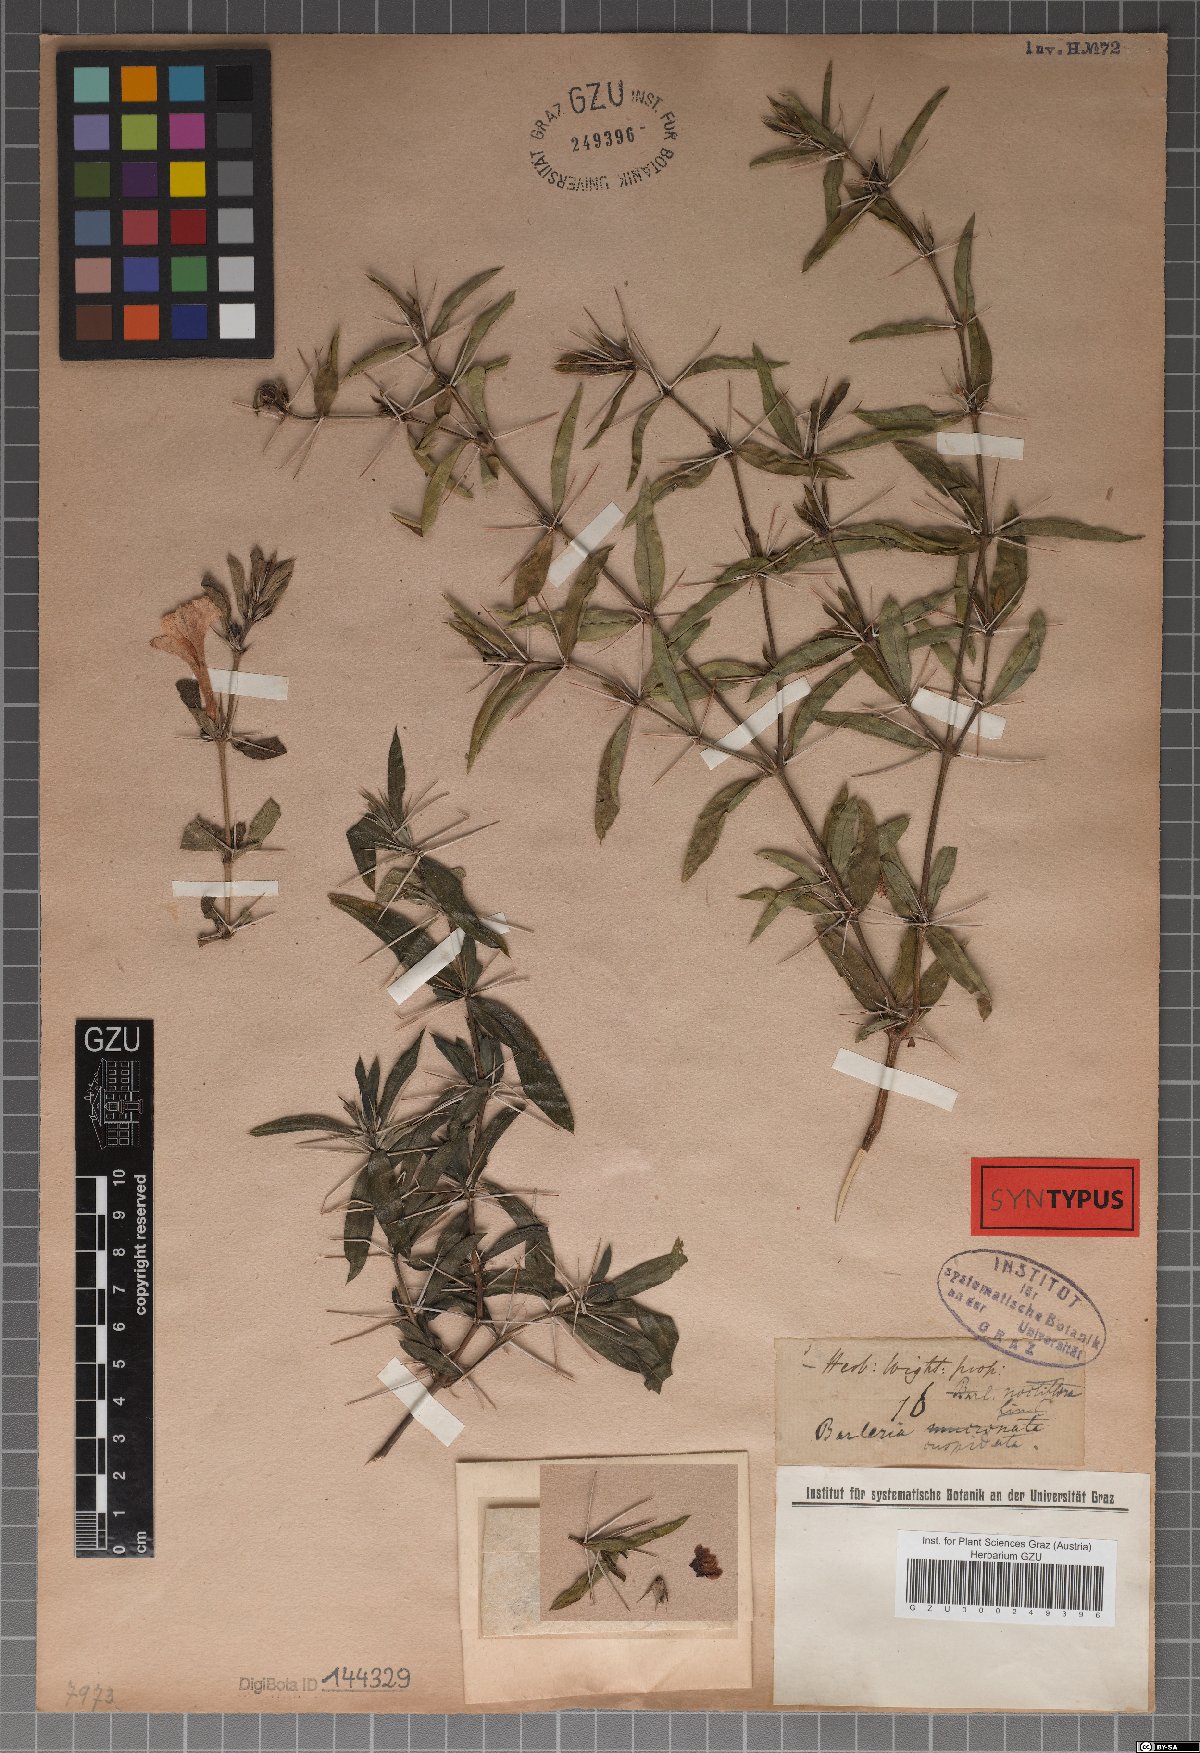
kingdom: Plantae
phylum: Tracheophyta
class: Magnoliopsida
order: Lamiales
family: Acanthaceae
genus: Barleria
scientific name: Barleria cuspidata
